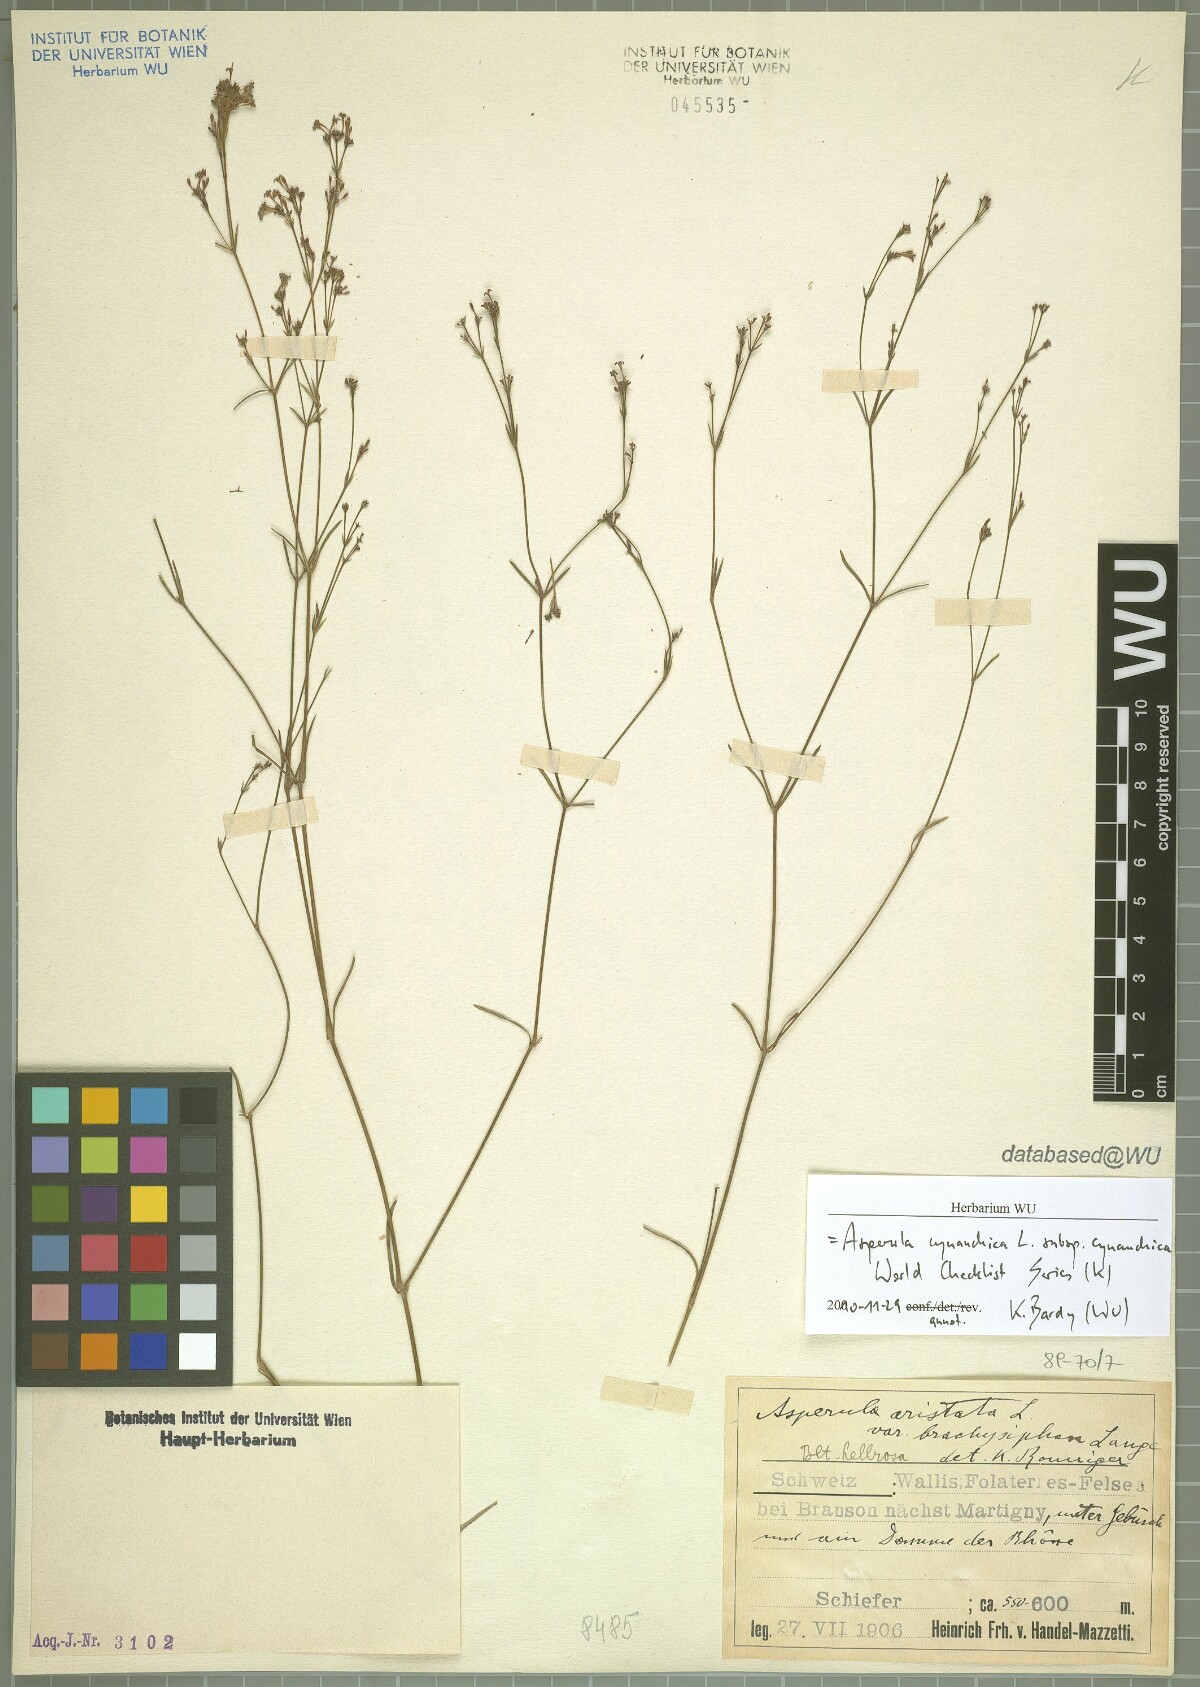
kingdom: Plantae
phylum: Tracheophyta
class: Magnoliopsida
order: Gentianales
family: Rubiaceae
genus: Cynanchica
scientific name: Cynanchica pyrenaica
